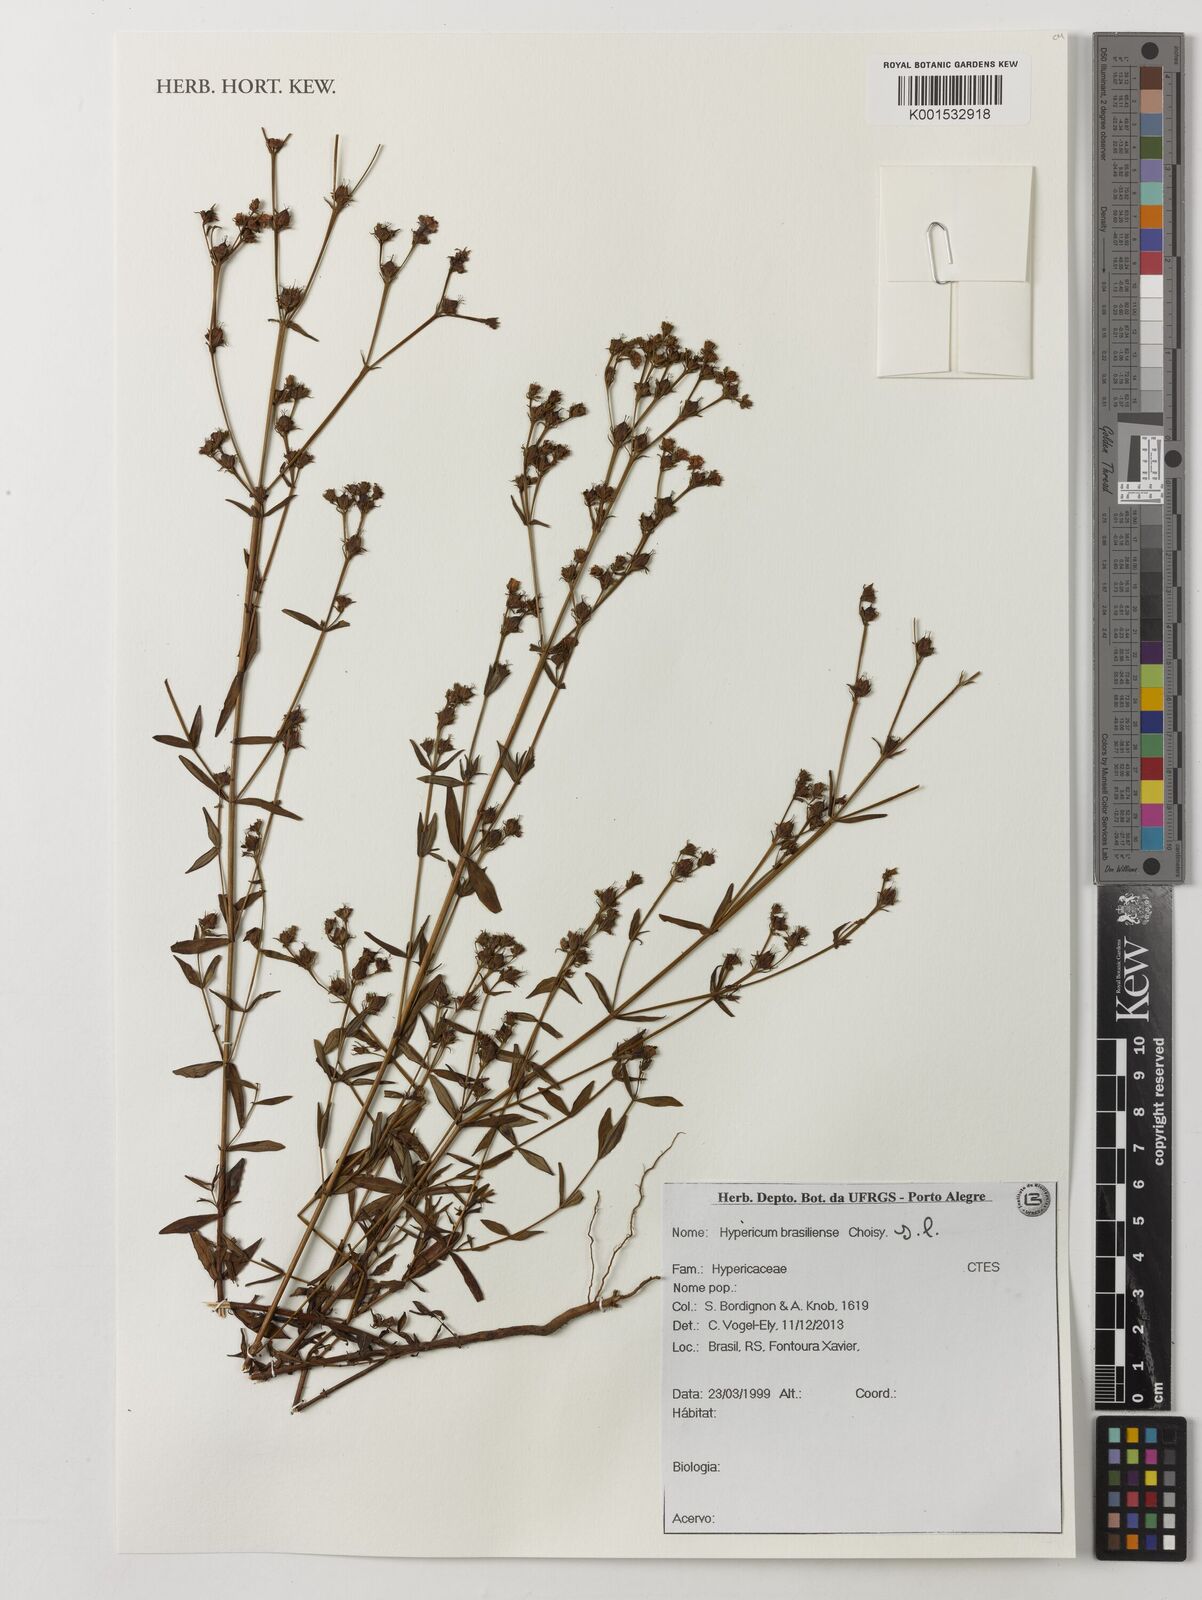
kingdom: Plantae
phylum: Tracheophyta
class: Magnoliopsida
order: Malpighiales
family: Hypericaceae
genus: Hypericum
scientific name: Hypericum brasiliense
